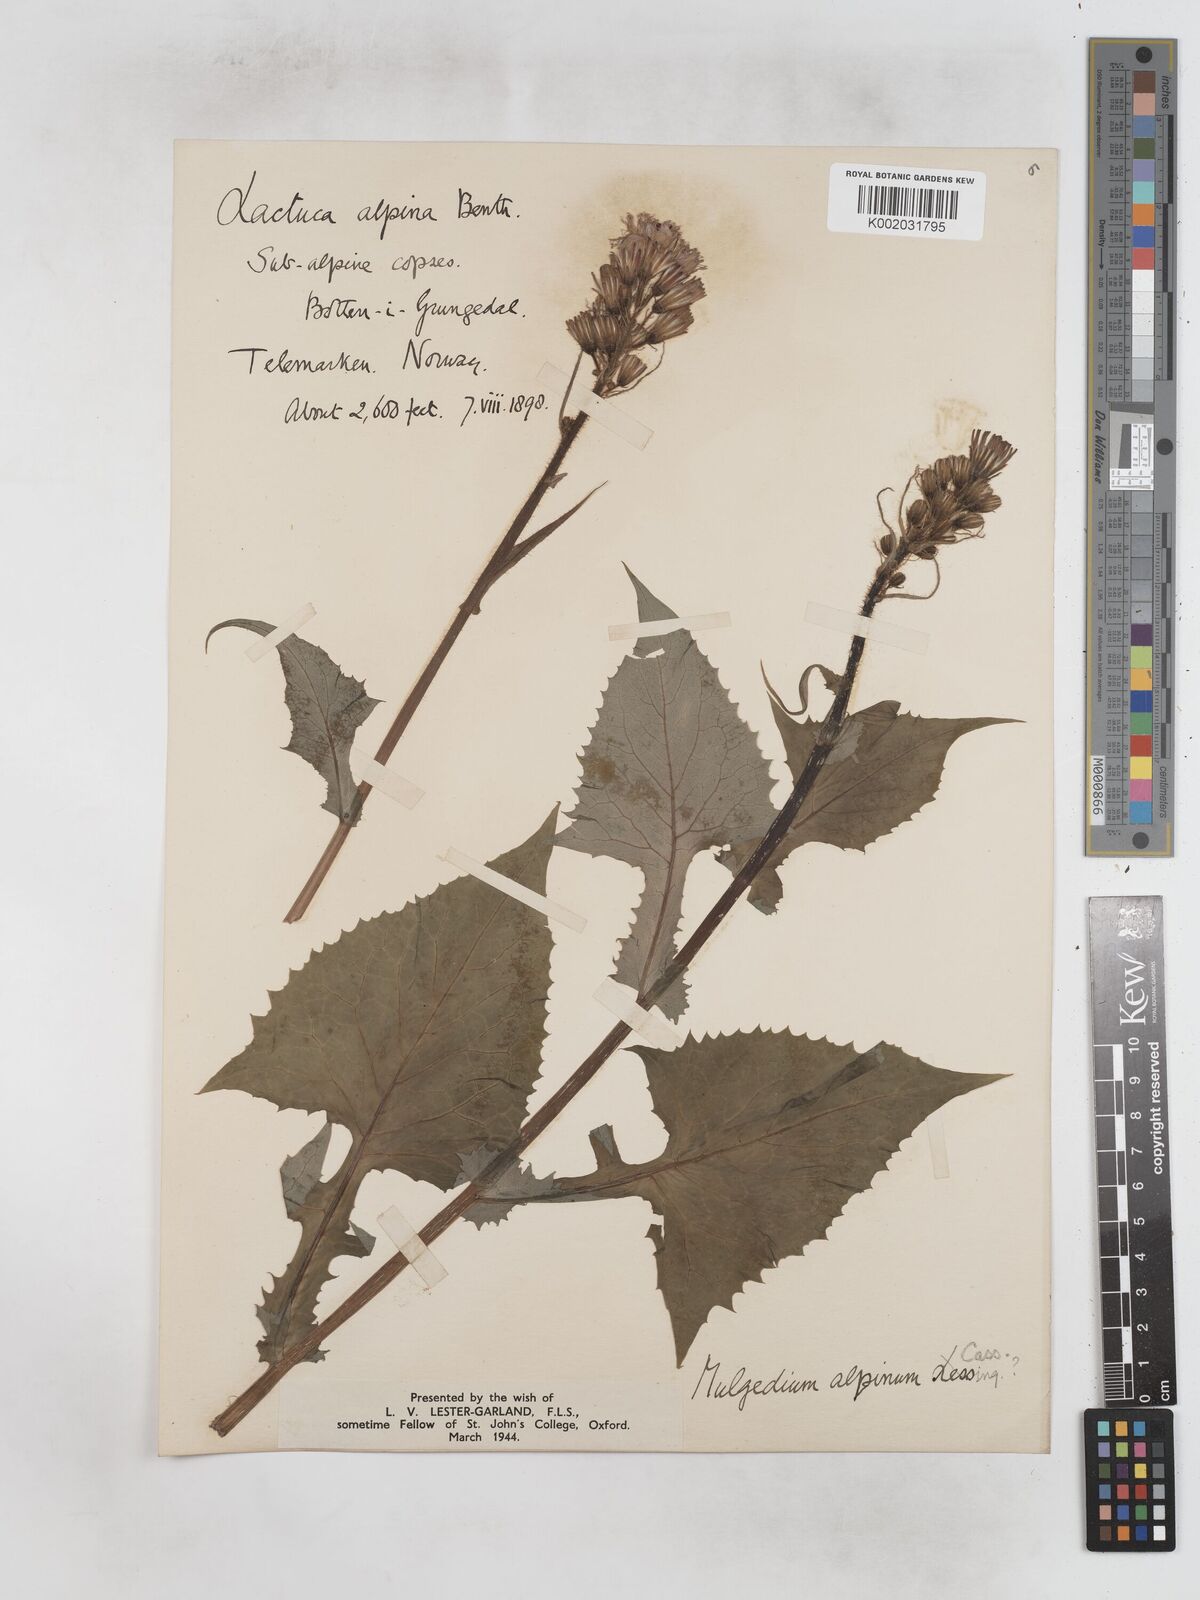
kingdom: Plantae
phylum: Tracheophyta
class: Magnoliopsida
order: Asterales
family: Asteraceae
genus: Cicerbita
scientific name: Cicerbita alpina
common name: Alpine blue-sow-thistle
